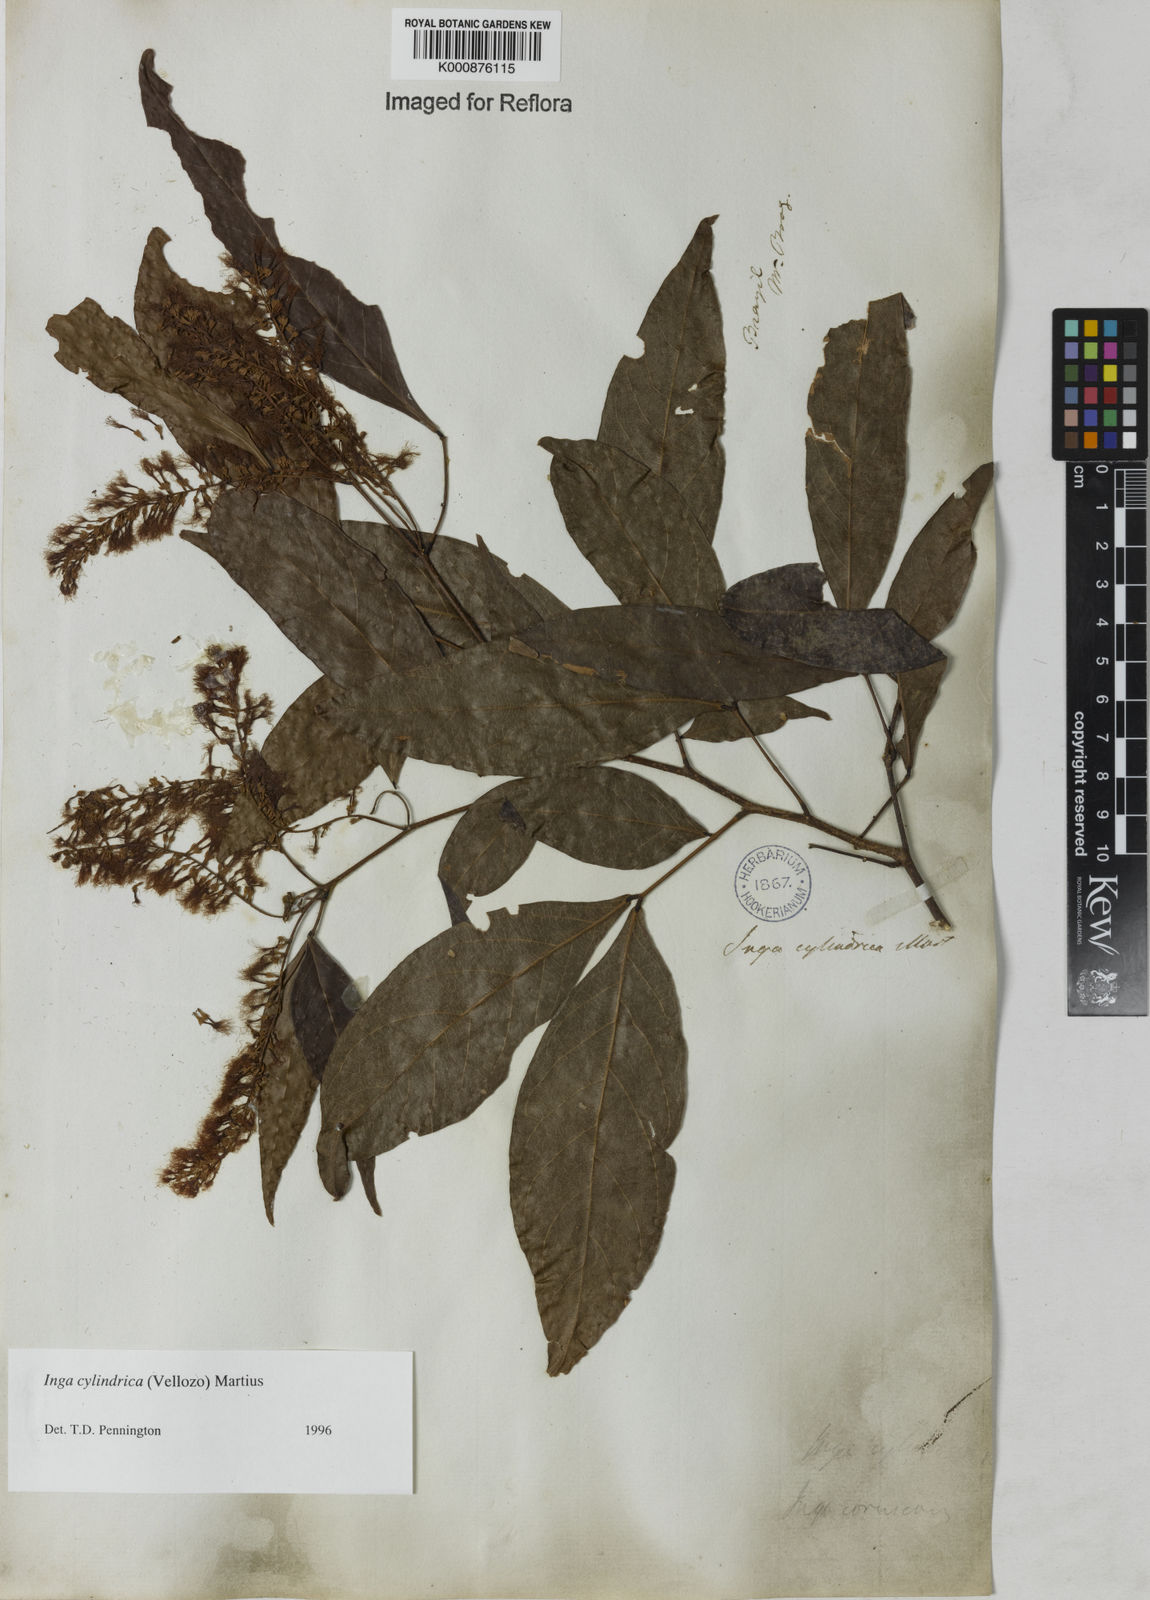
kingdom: Plantae
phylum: Tracheophyta
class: Magnoliopsida
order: Fabales
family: Fabaceae
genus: Inga
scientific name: Inga cylindrica
